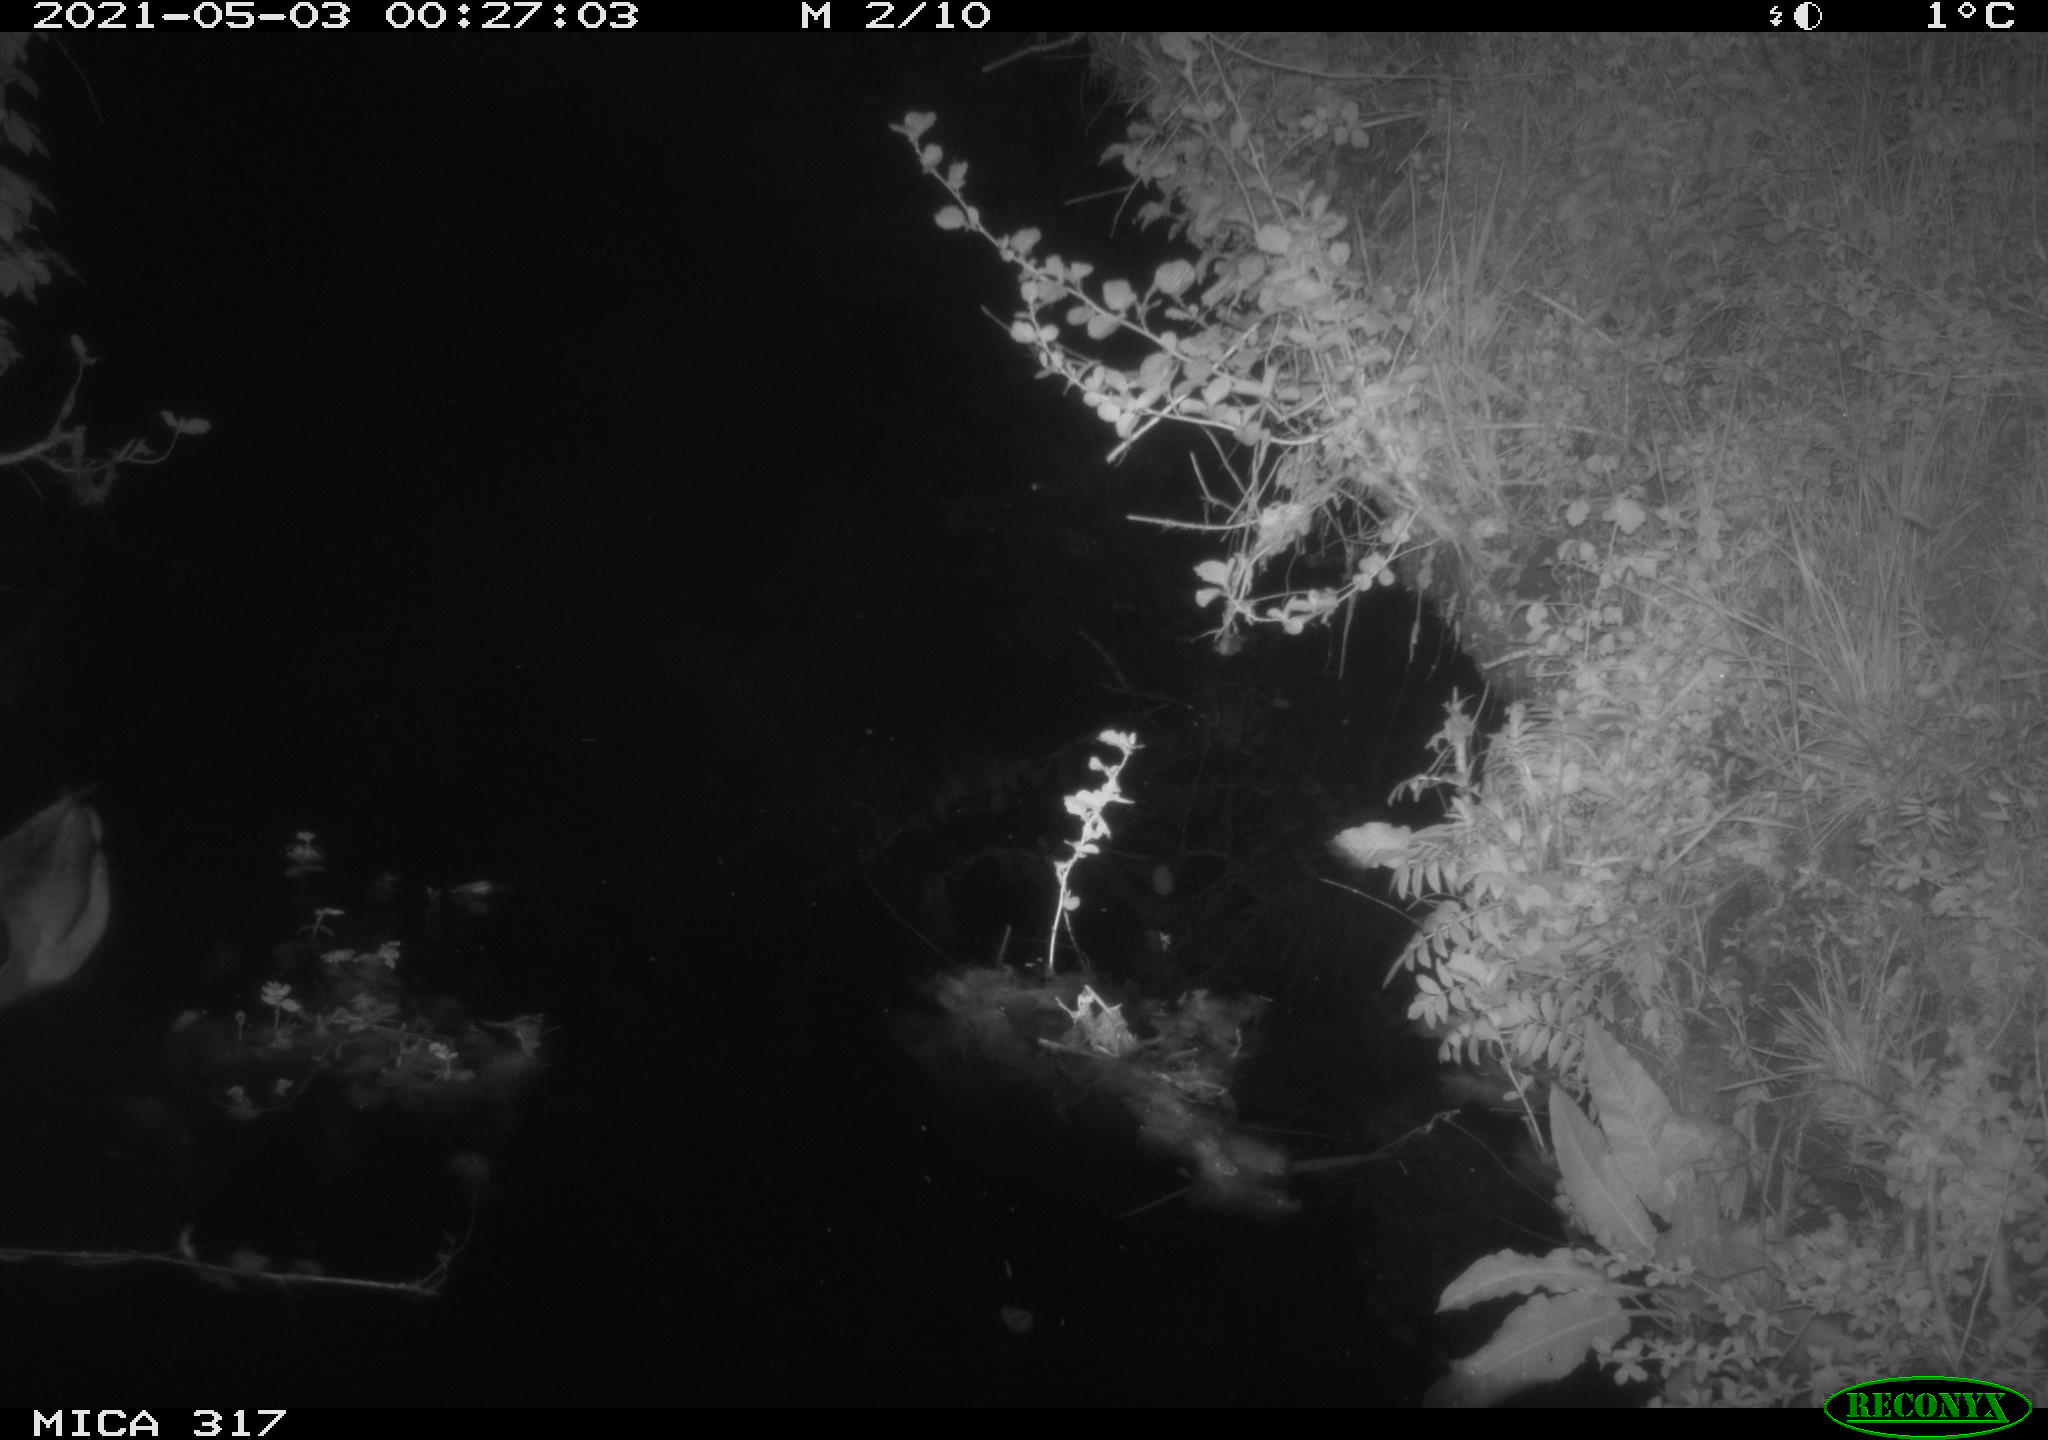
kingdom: Animalia
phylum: Chordata
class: Aves
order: Anseriformes
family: Anatidae
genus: Anas
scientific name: Anas
